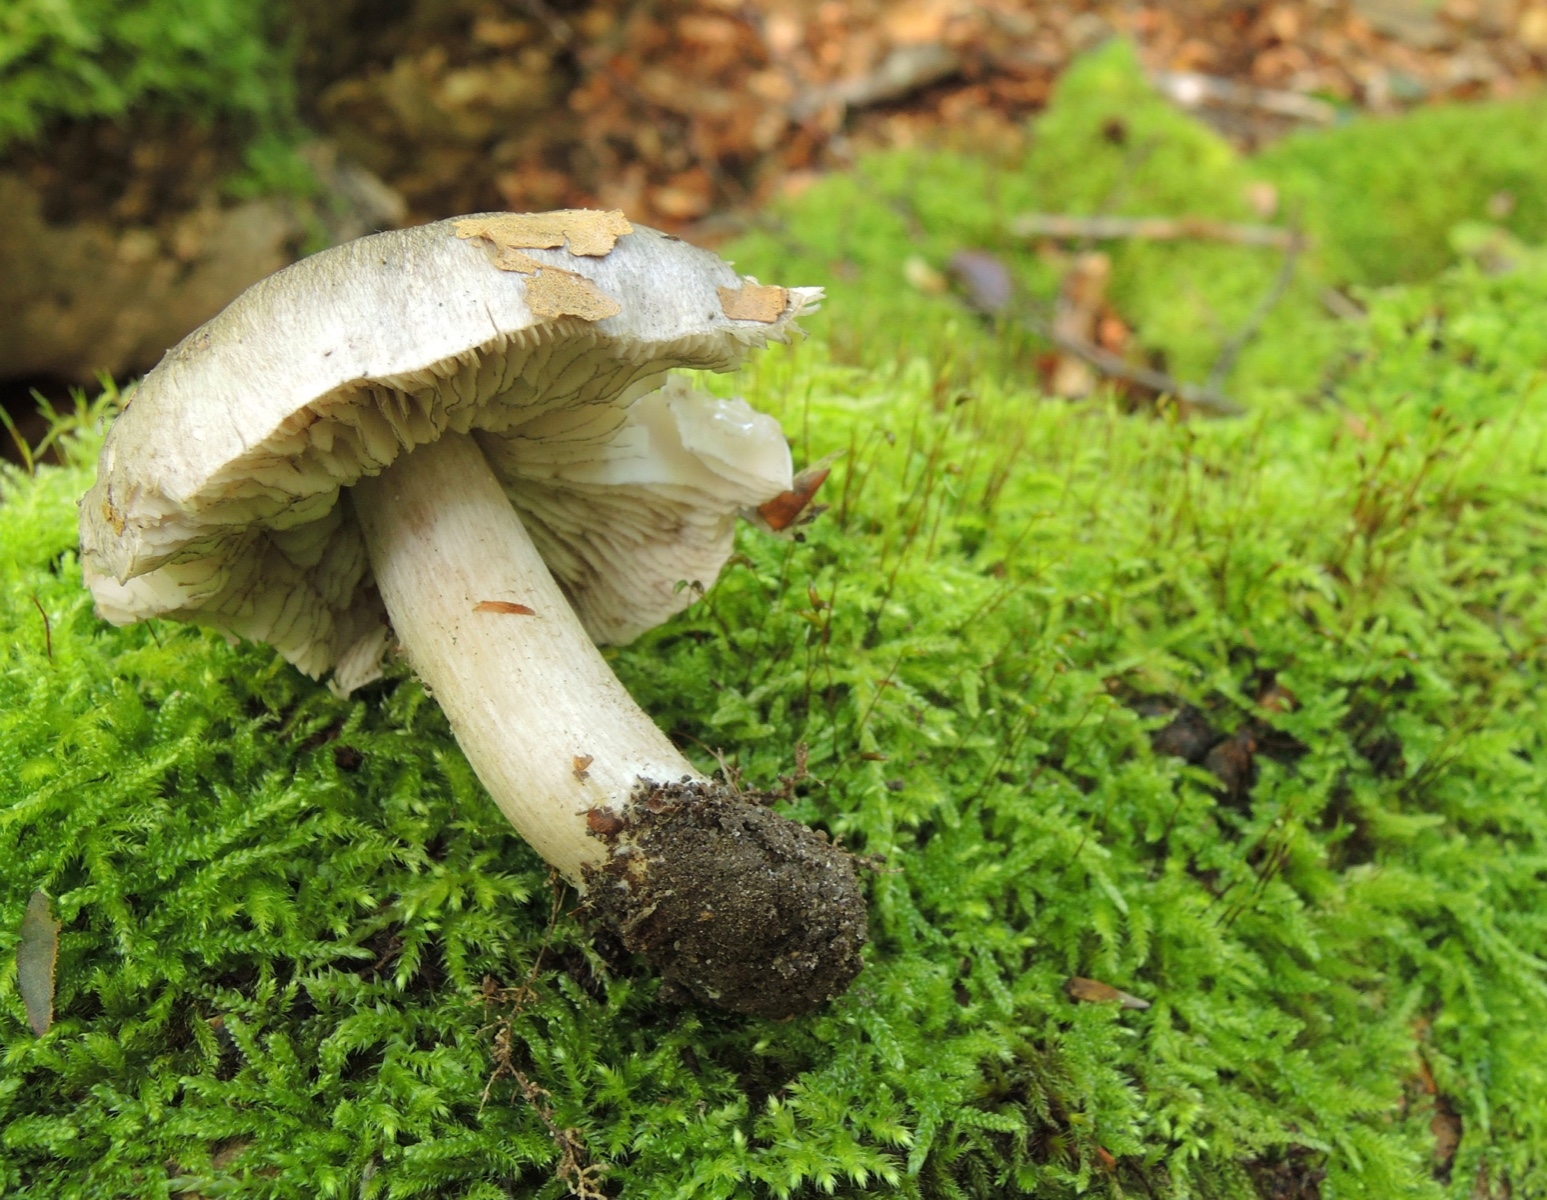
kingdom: Fungi
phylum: Basidiomycota
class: Agaricomycetes
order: Agaricales
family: Tricholomataceae
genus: Tricholoma
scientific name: Tricholoma sciodes
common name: stribet ridderhat
